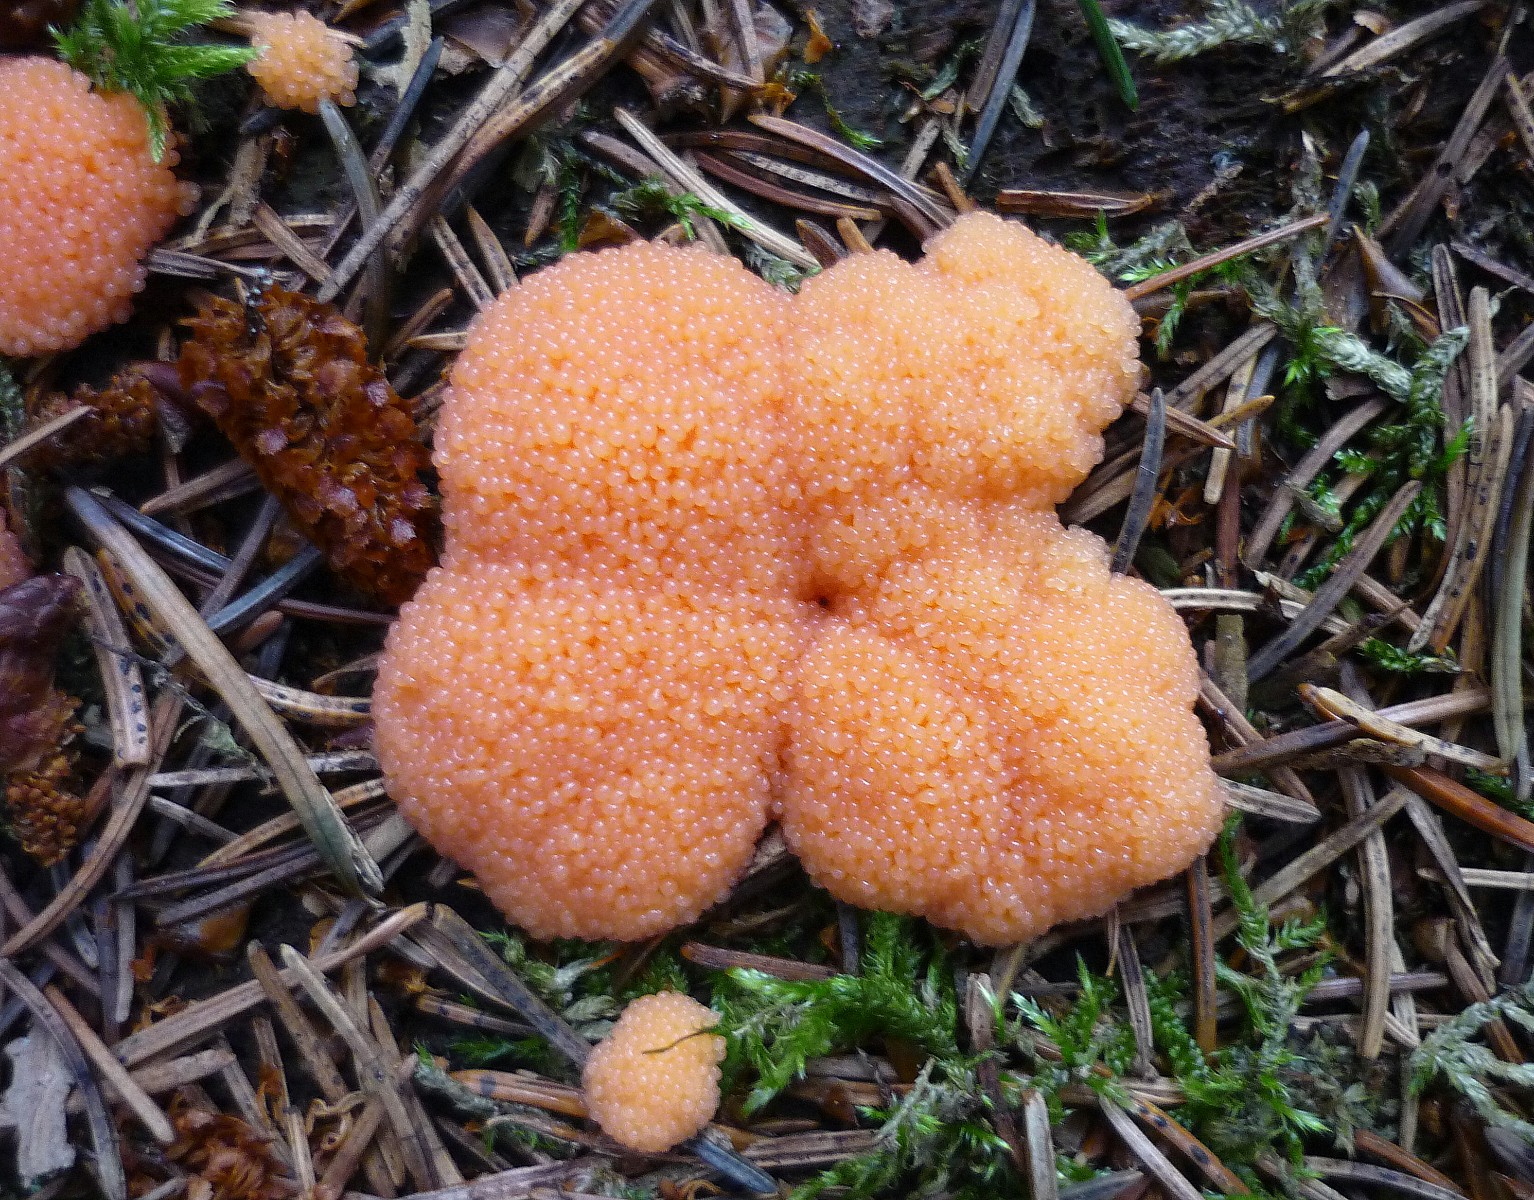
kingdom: Protozoa
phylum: Mycetozoa
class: Myxomycetes
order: Cribrariales
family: Tubiferaceae
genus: Tubifera
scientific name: Tubifera ferruginosa
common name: kanel-støvrør
